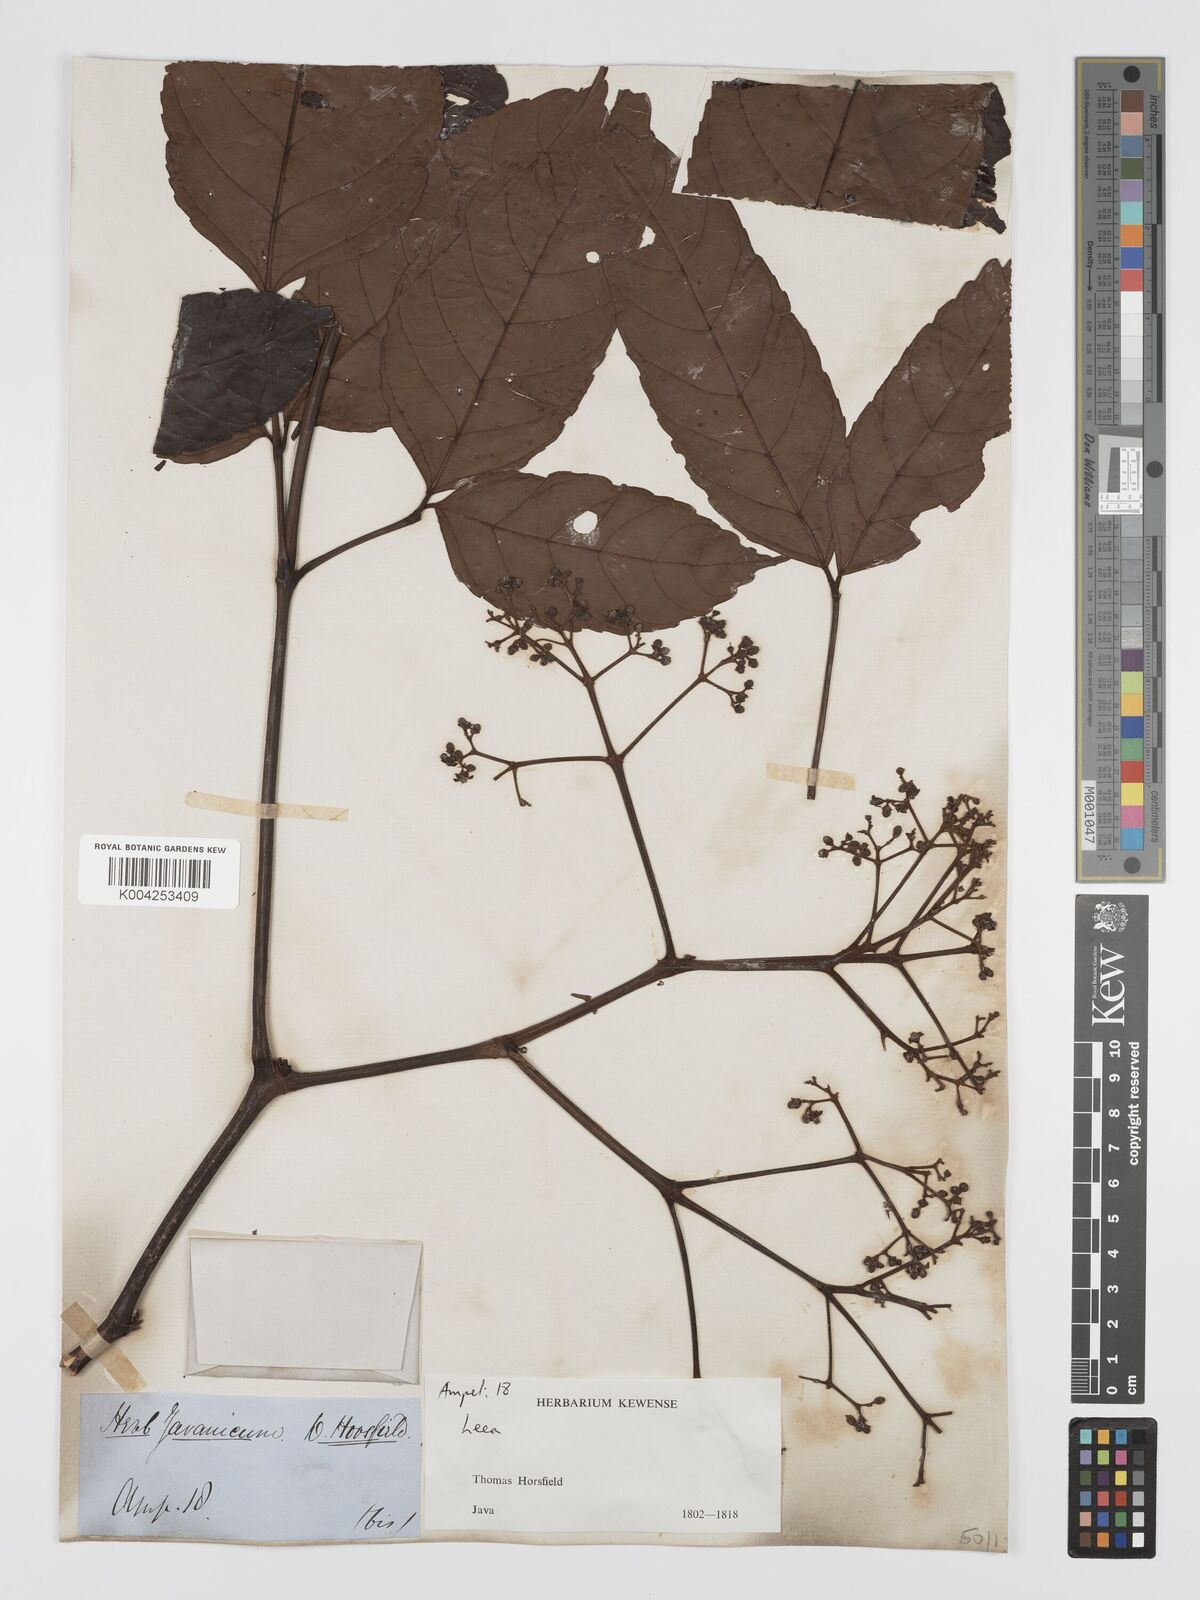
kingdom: Plantae
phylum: Tracheophyta
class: Magnoliopsida
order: Vitales
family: Vitaceae
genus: Leea
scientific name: Leea amabilis
